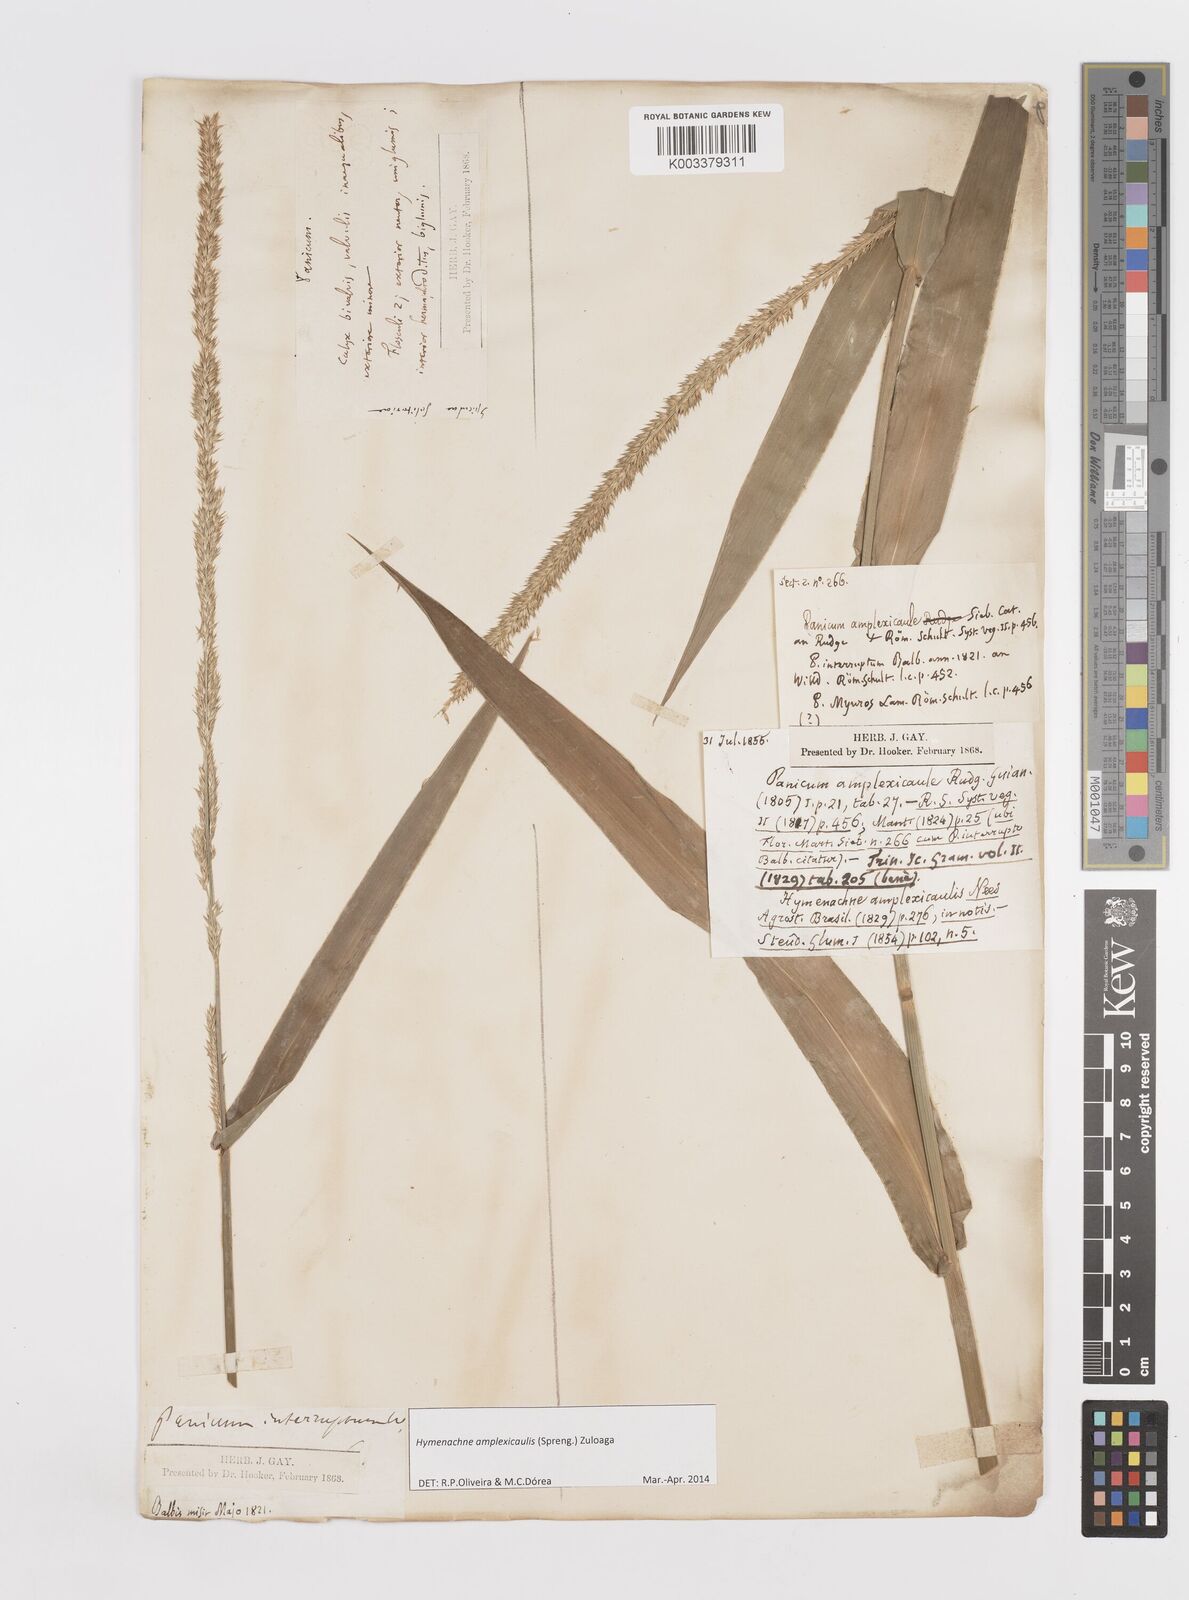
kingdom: Plantae
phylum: Tracheophyta
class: Liliopsida
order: Poales
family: Poaceae
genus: Hymenachne
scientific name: Hymenachne amplexicaulis
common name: Olive hymenachne
